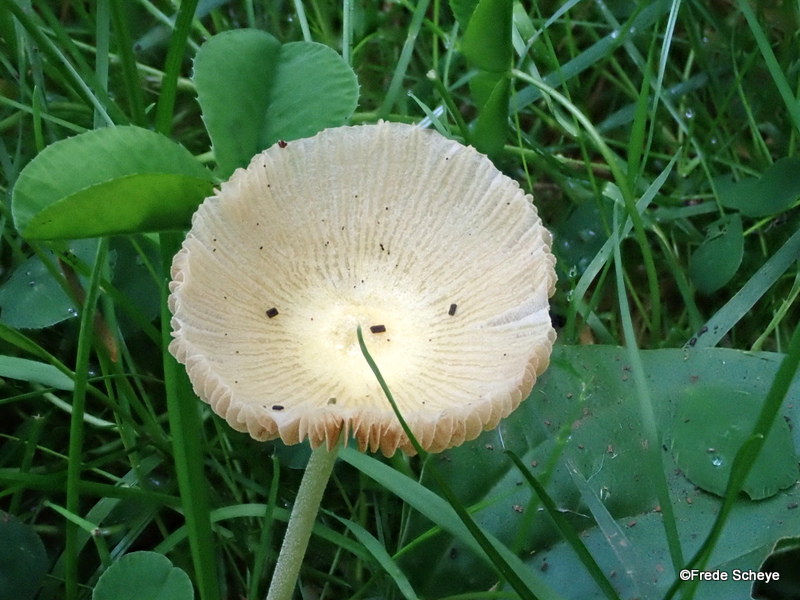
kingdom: Fungi
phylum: Basidiomycota
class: Agaricomycetes
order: Agaricales
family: Bolbitiaceae
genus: Bolbitius
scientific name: Bolbitius titubans
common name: almindelig gulhat
